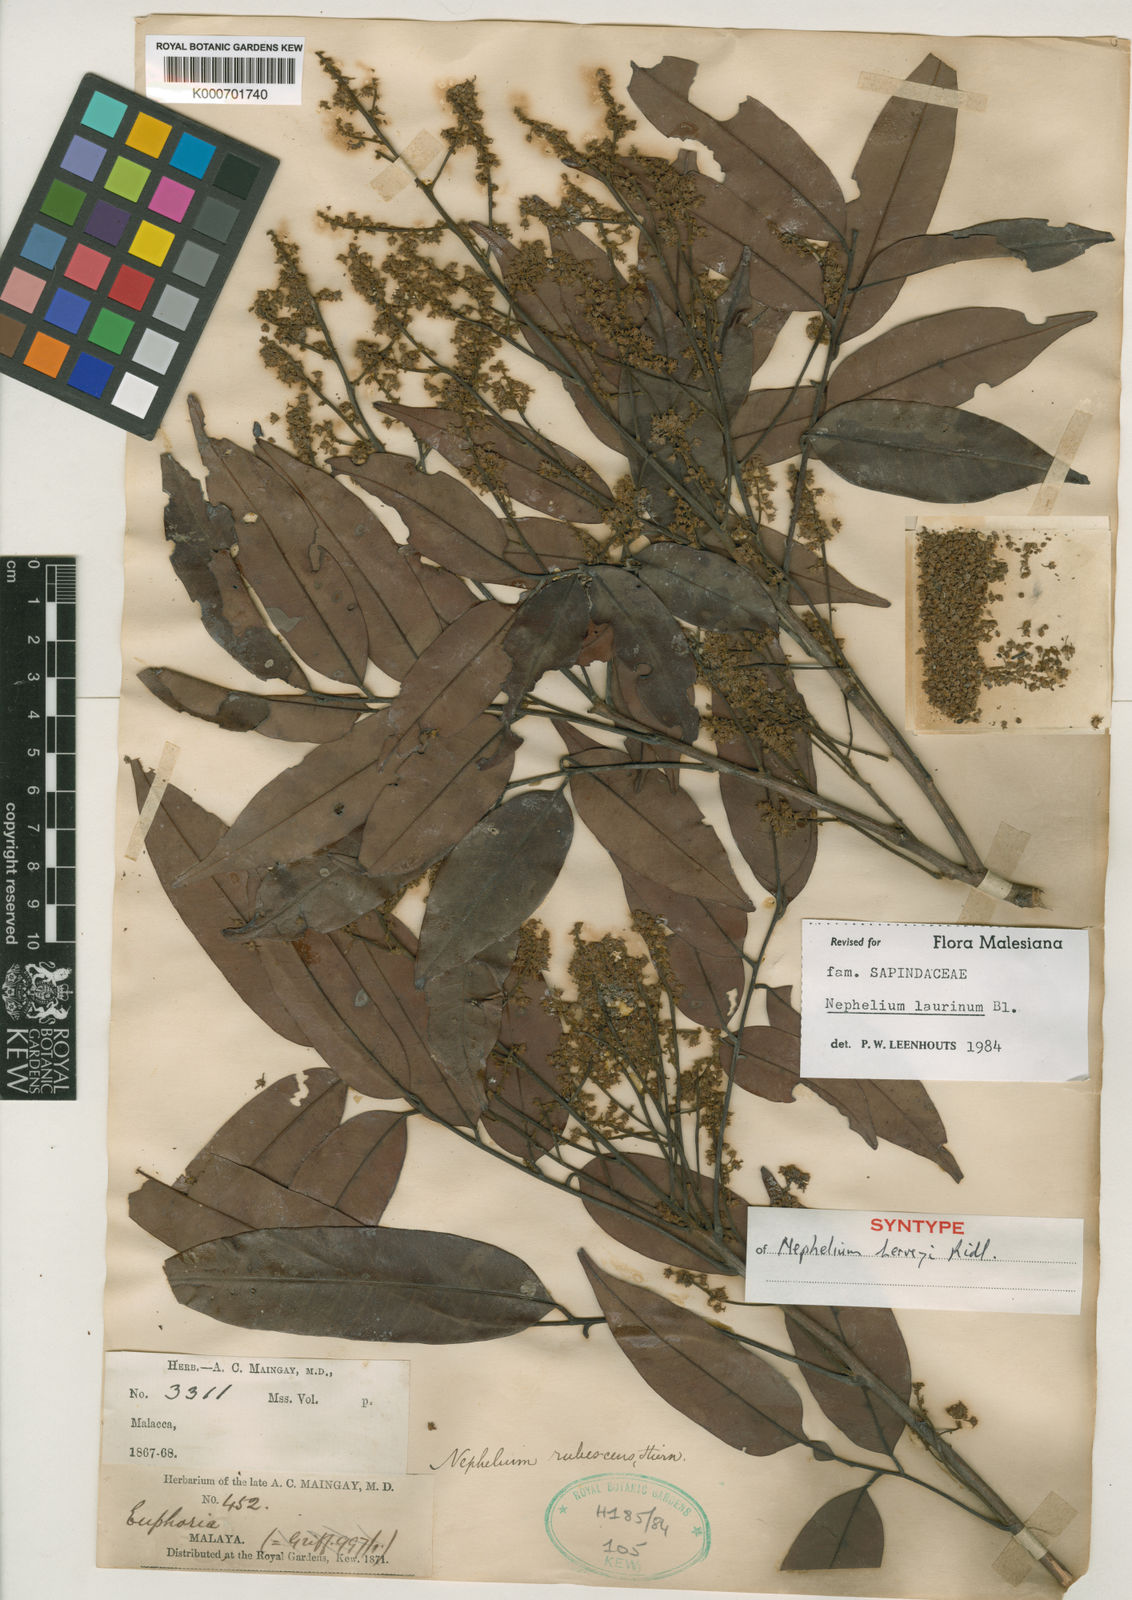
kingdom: Plantae
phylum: Tracheophyta
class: Magnoliopsida
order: Sapindales
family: Sapindaceae
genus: Nephelium
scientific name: Nephelium laurinum
